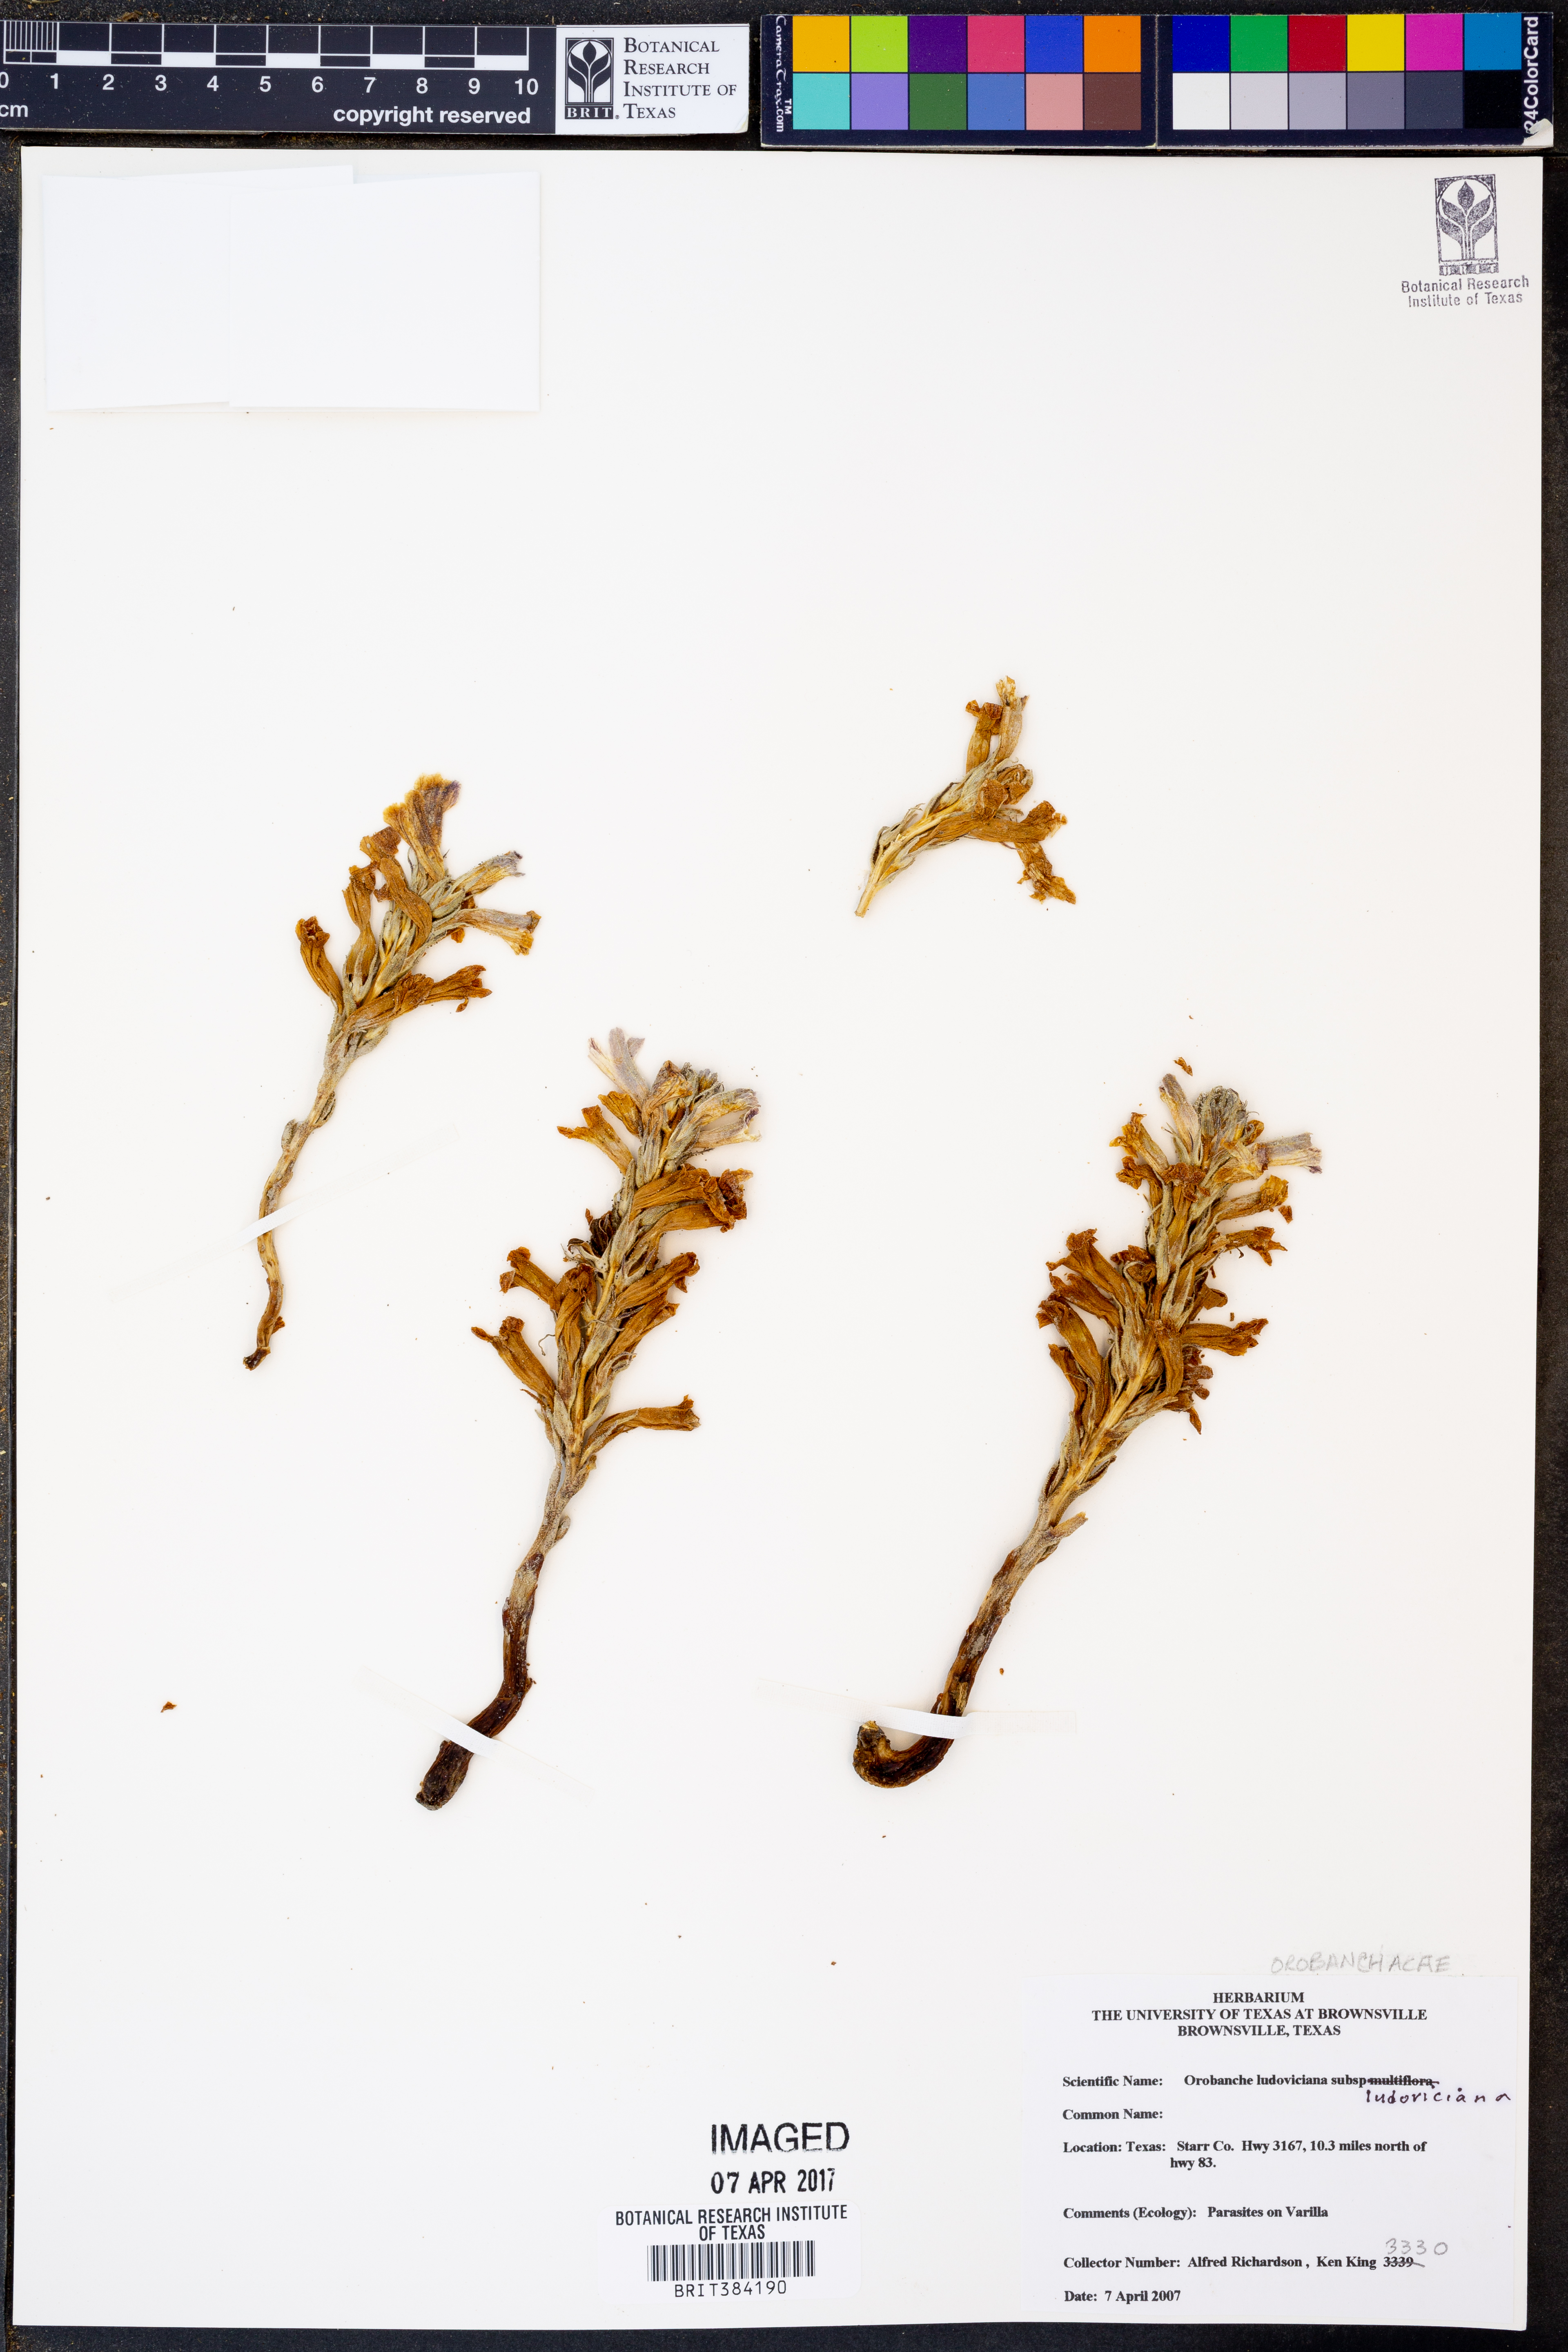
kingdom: Plantae
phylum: Tracheophyta
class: Magnoliopsida
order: Lamiales
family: Orobanchaceae
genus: Aphyllon
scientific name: Aphyllon ludovicianum
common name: Louisiana broomrape
